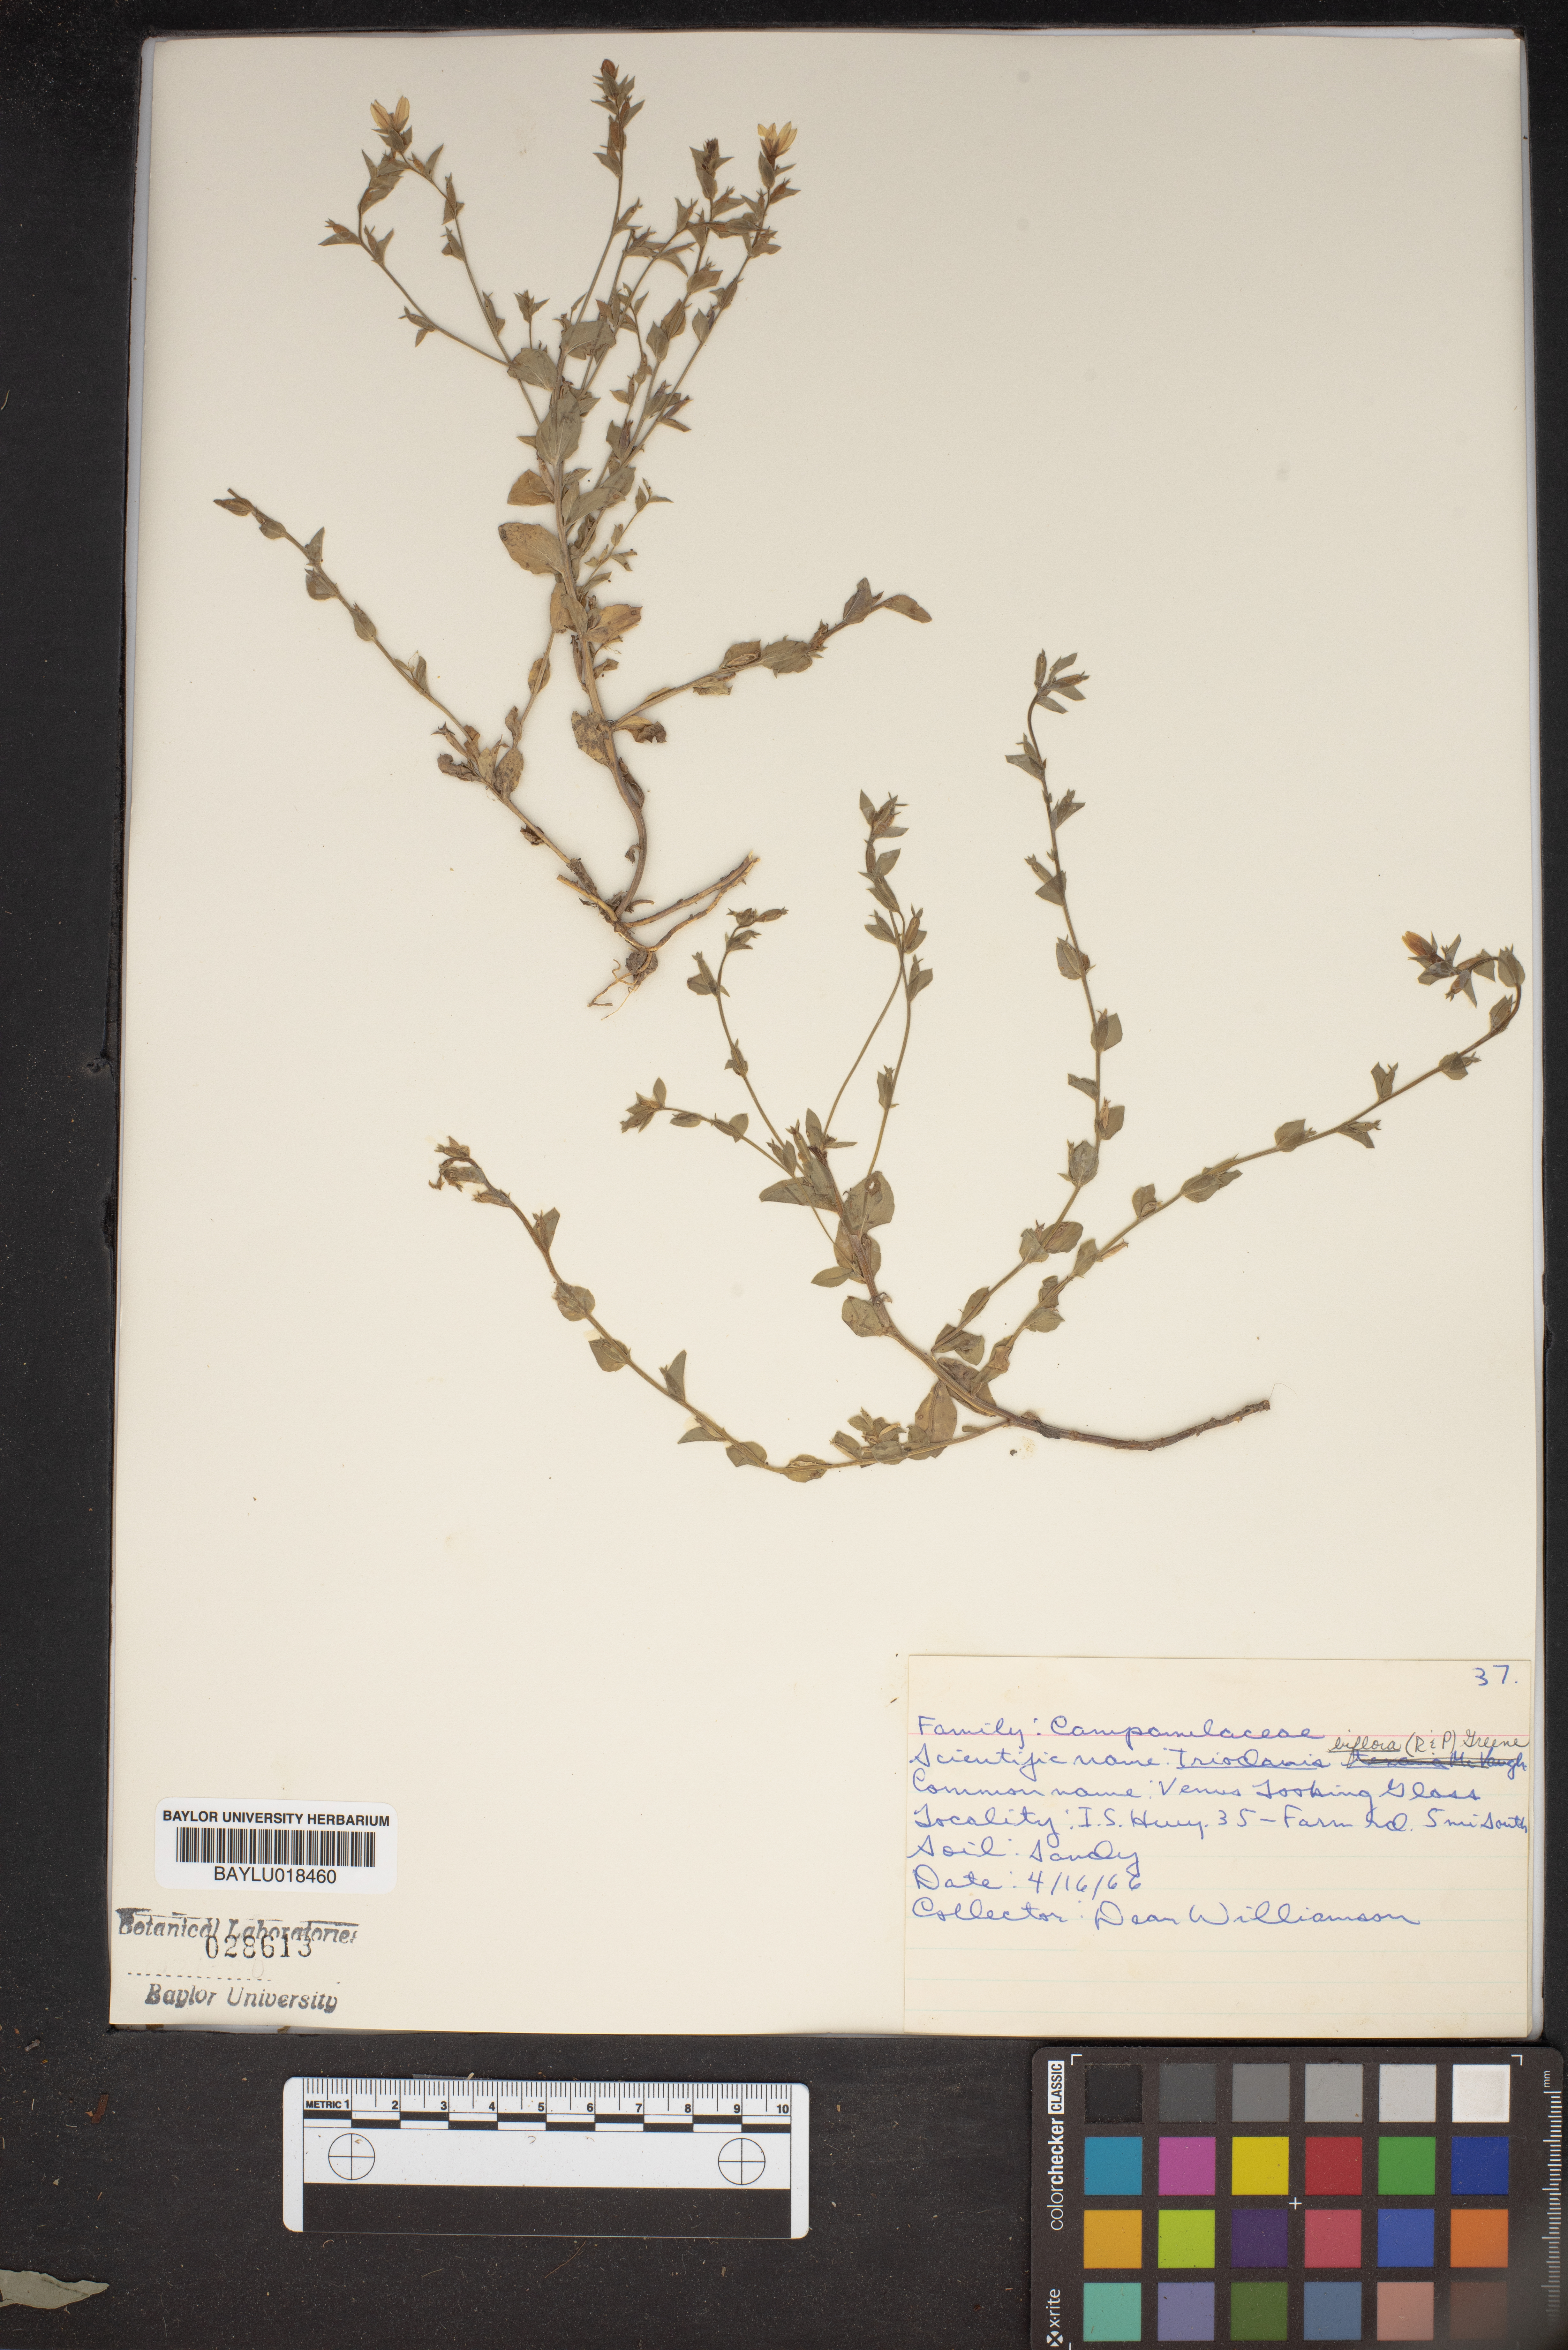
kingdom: Plantae
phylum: Tracheophyta
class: Magnoliopsida
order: Asterales
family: Campanulaceae
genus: Triodanis
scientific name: Triodanis perfoliata
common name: Clasping venus' looking-glass
